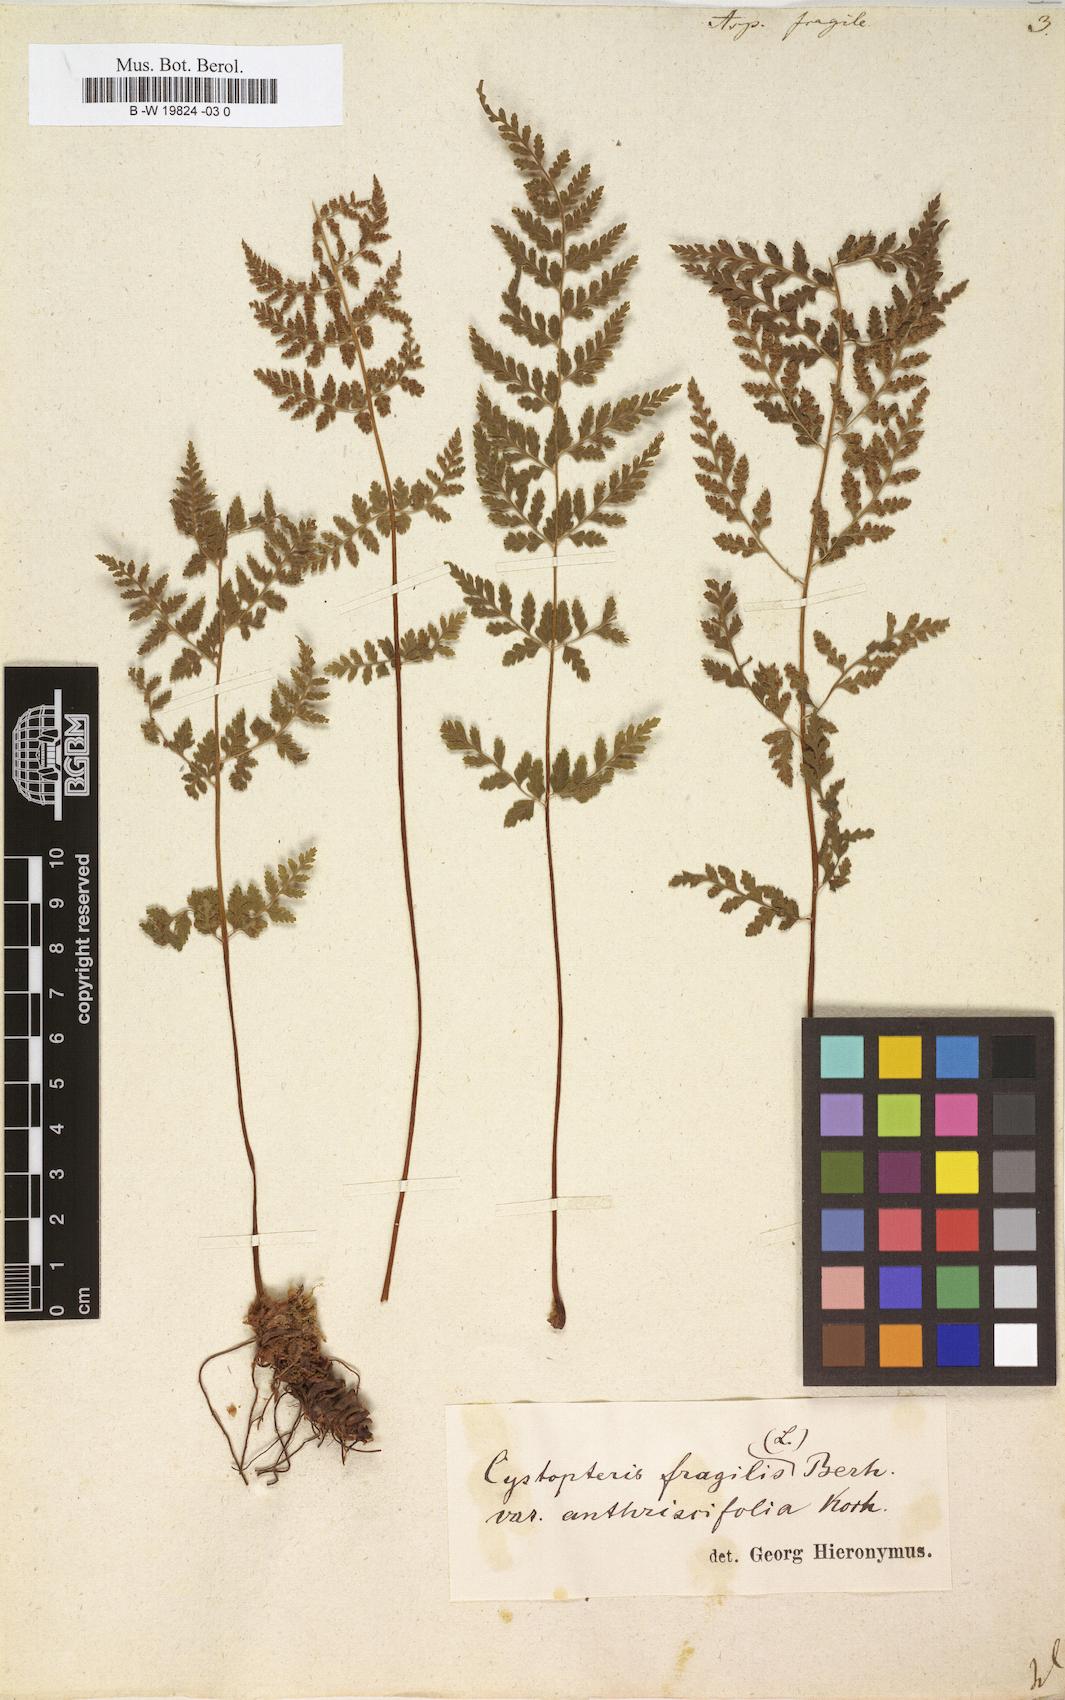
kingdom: Plantae
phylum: Tracheophyta
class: Polypodiopsida
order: Polypodiales
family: Cystopteridaceae
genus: Cystopteris
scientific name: Cystopteris fragilis
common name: Brittle bladder fern
